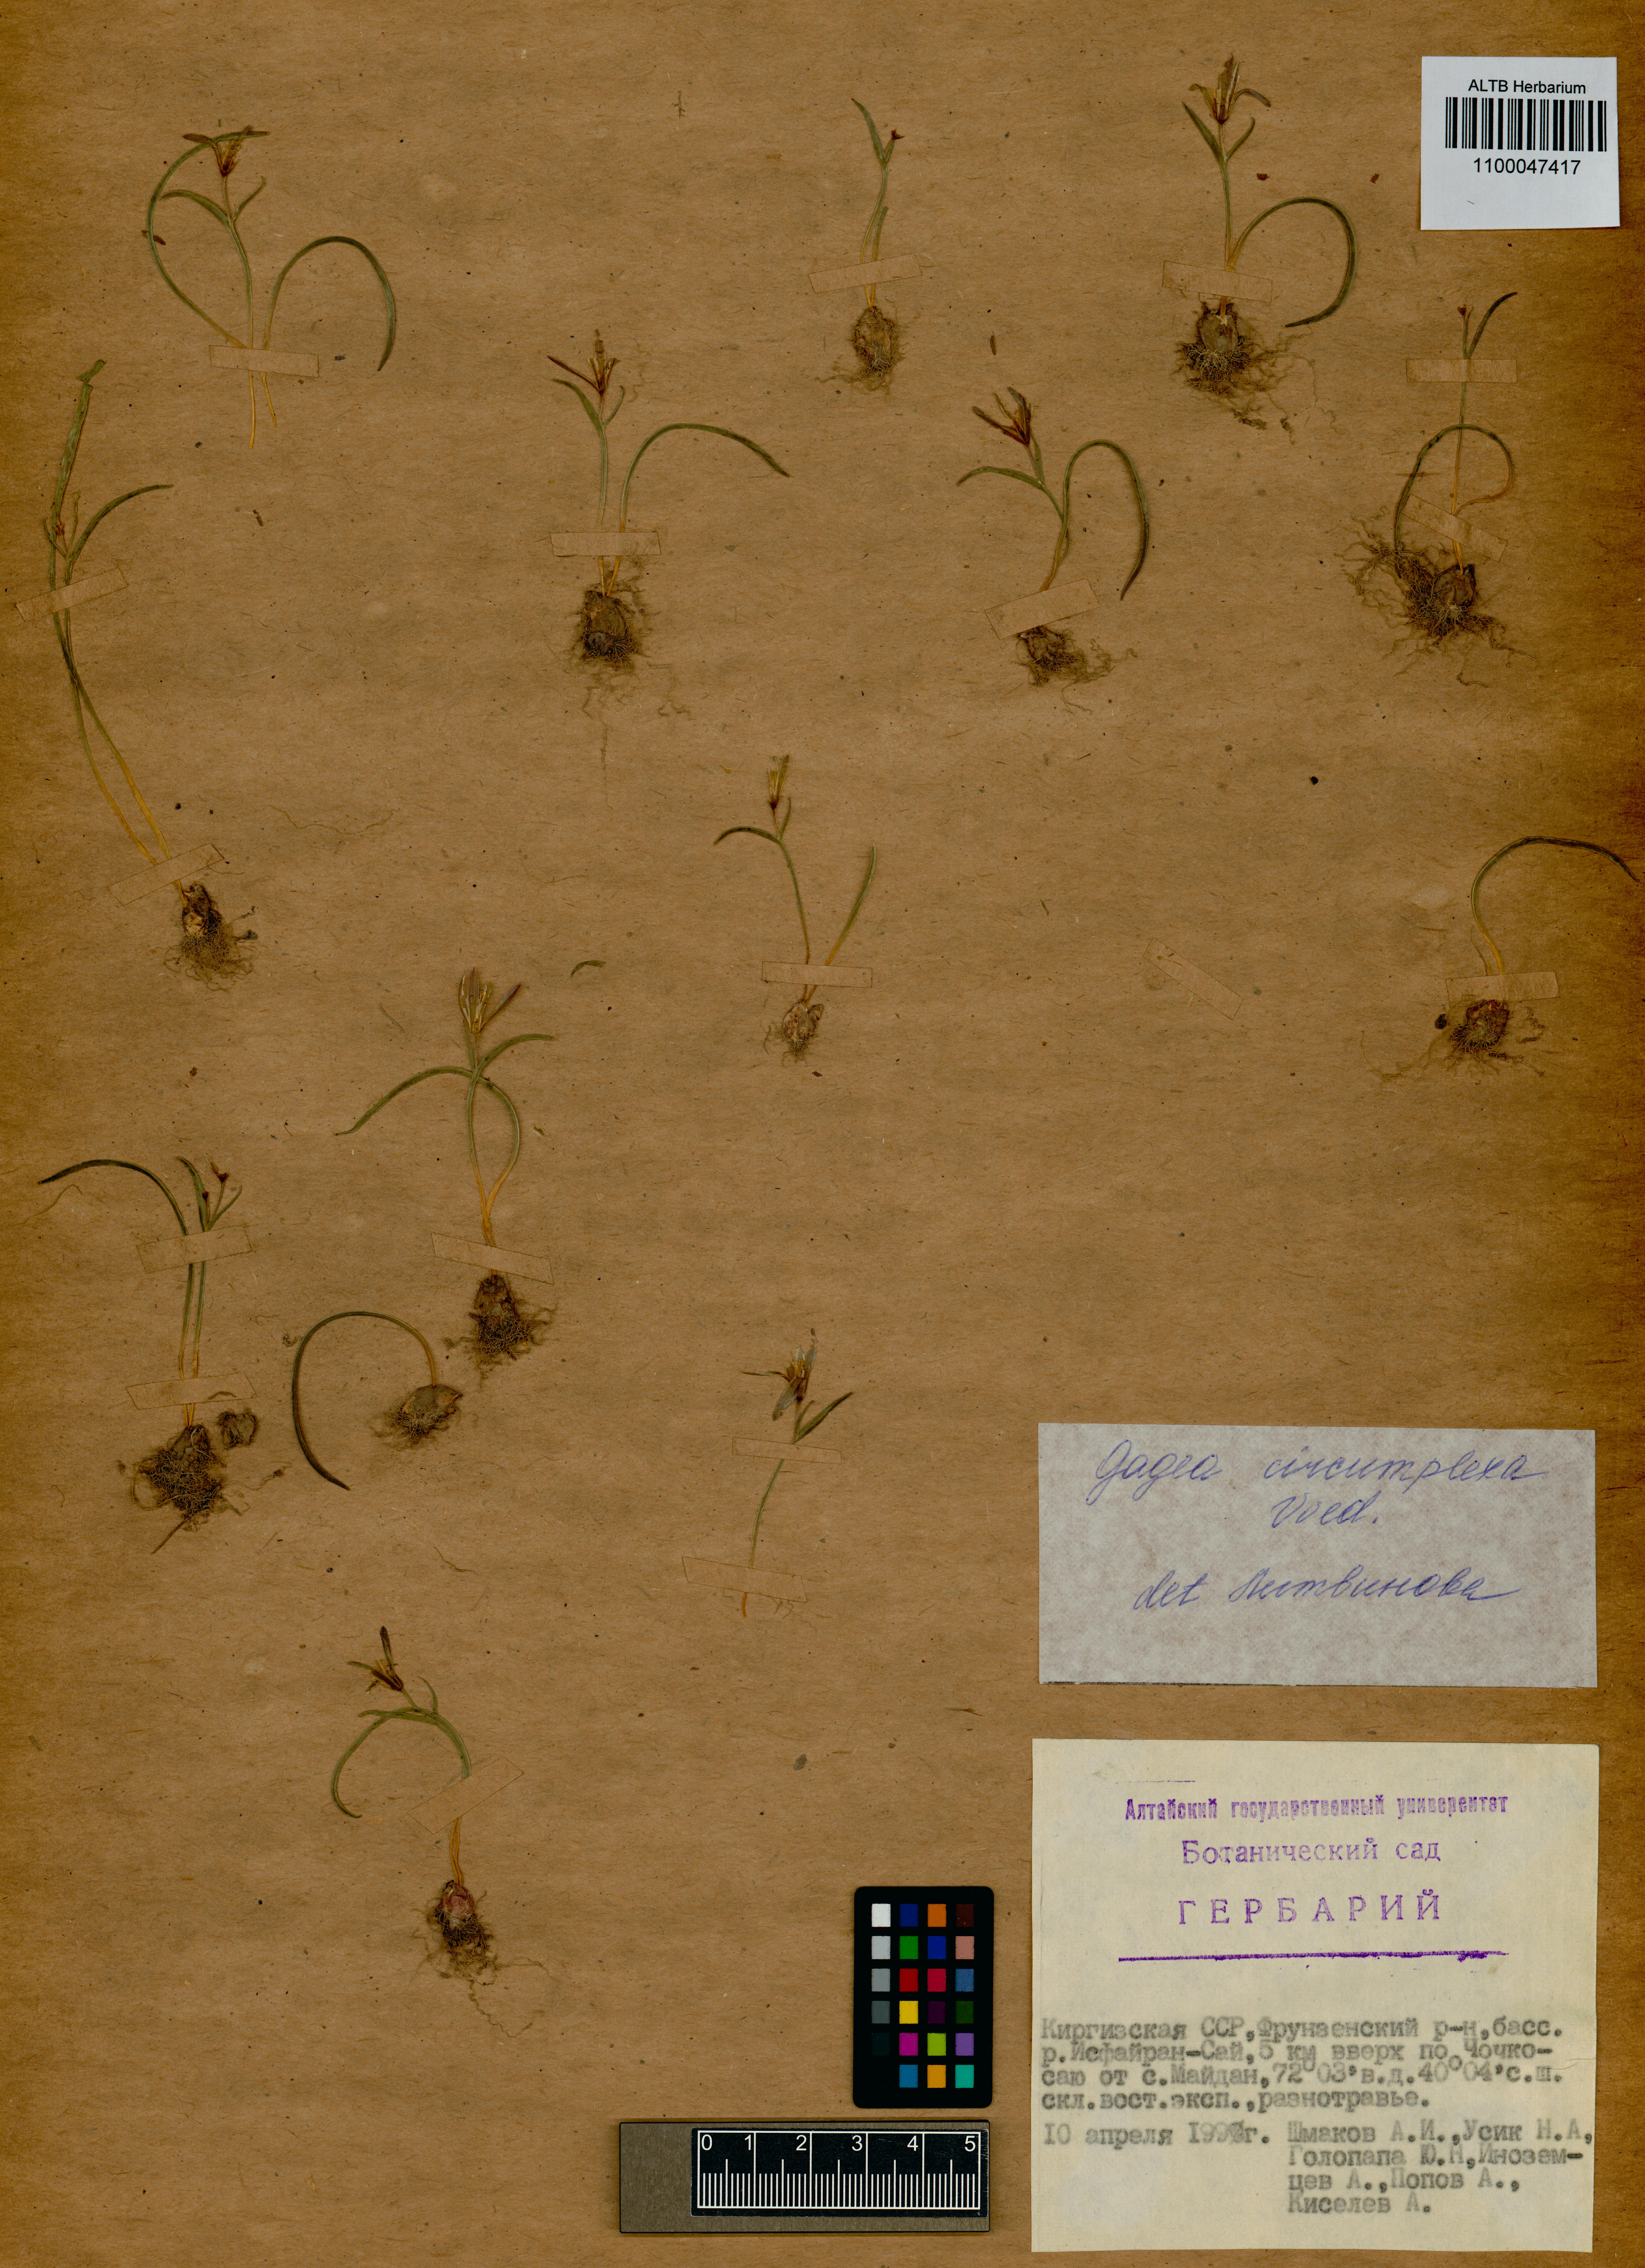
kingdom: Plantae
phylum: Tracheophyta
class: Liliopsida
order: Liliales
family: Liliaceae
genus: Gagea
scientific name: Gagea circumplexa
